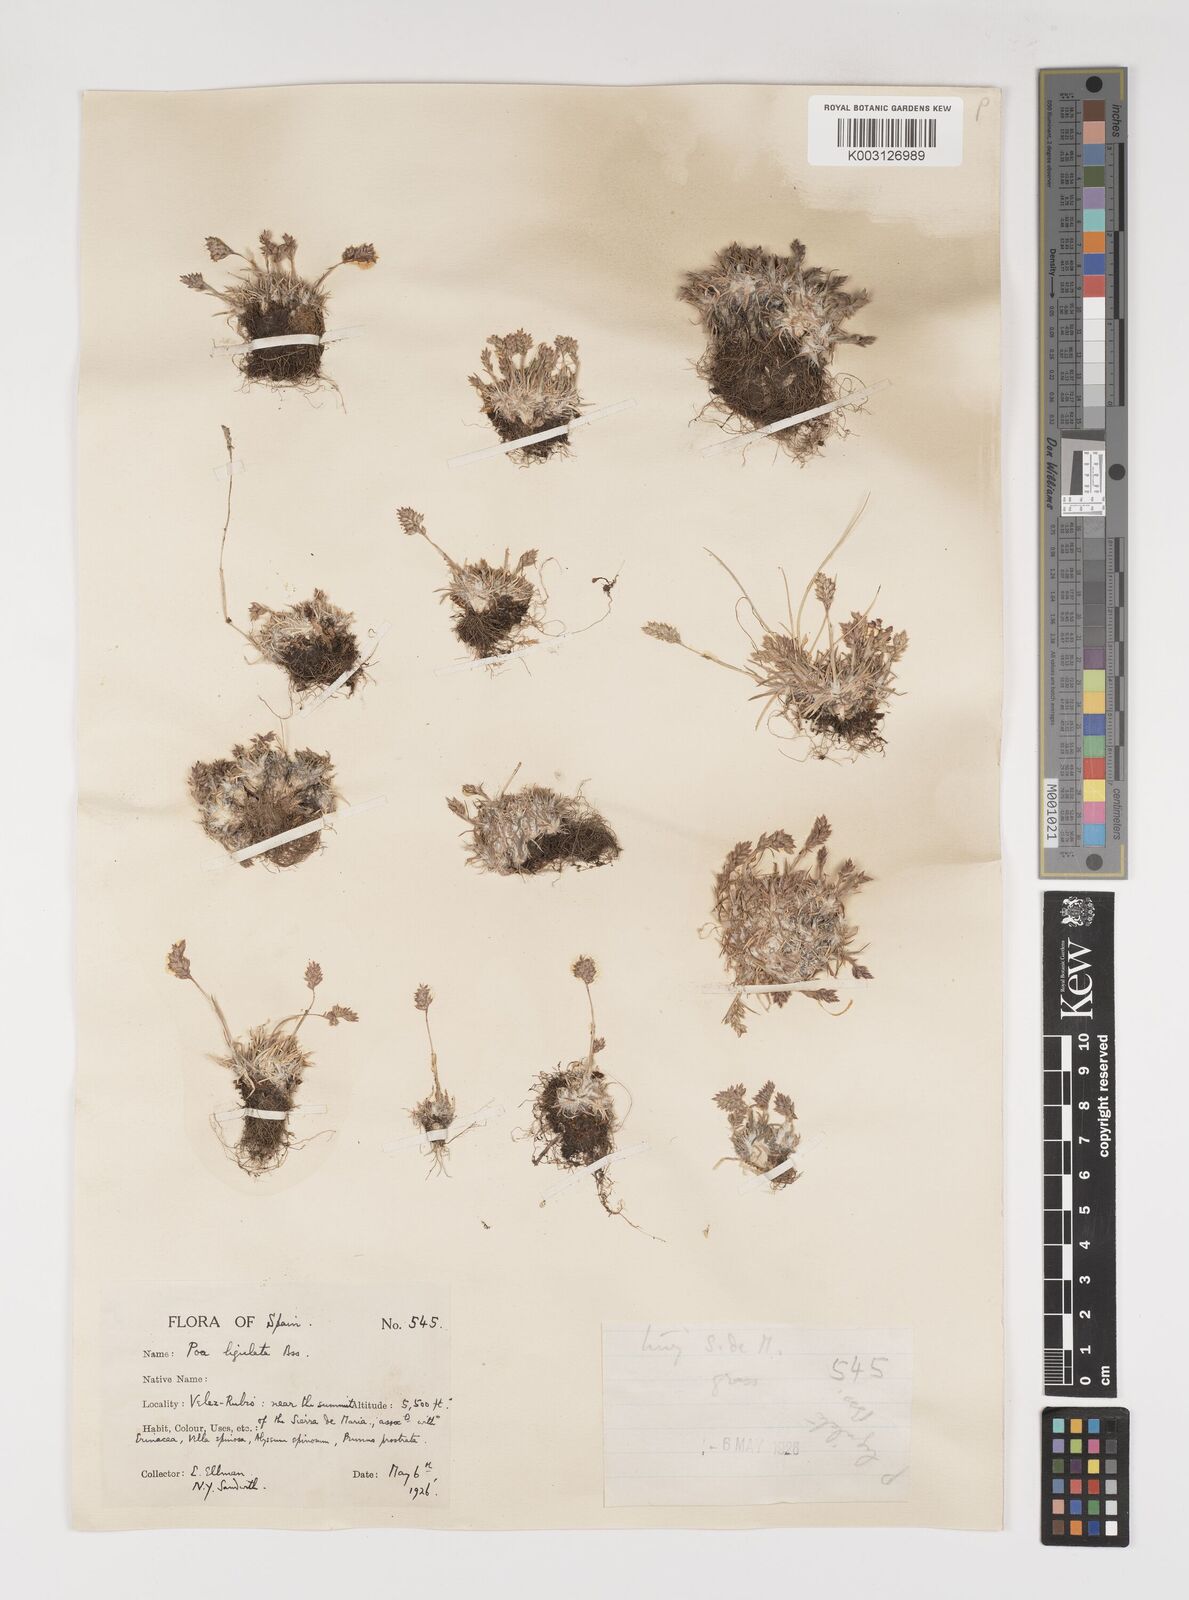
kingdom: Plantae
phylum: Tracheophyta
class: Liliopsida
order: Poales
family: Poaceae
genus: Poa
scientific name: Poa ligulata
